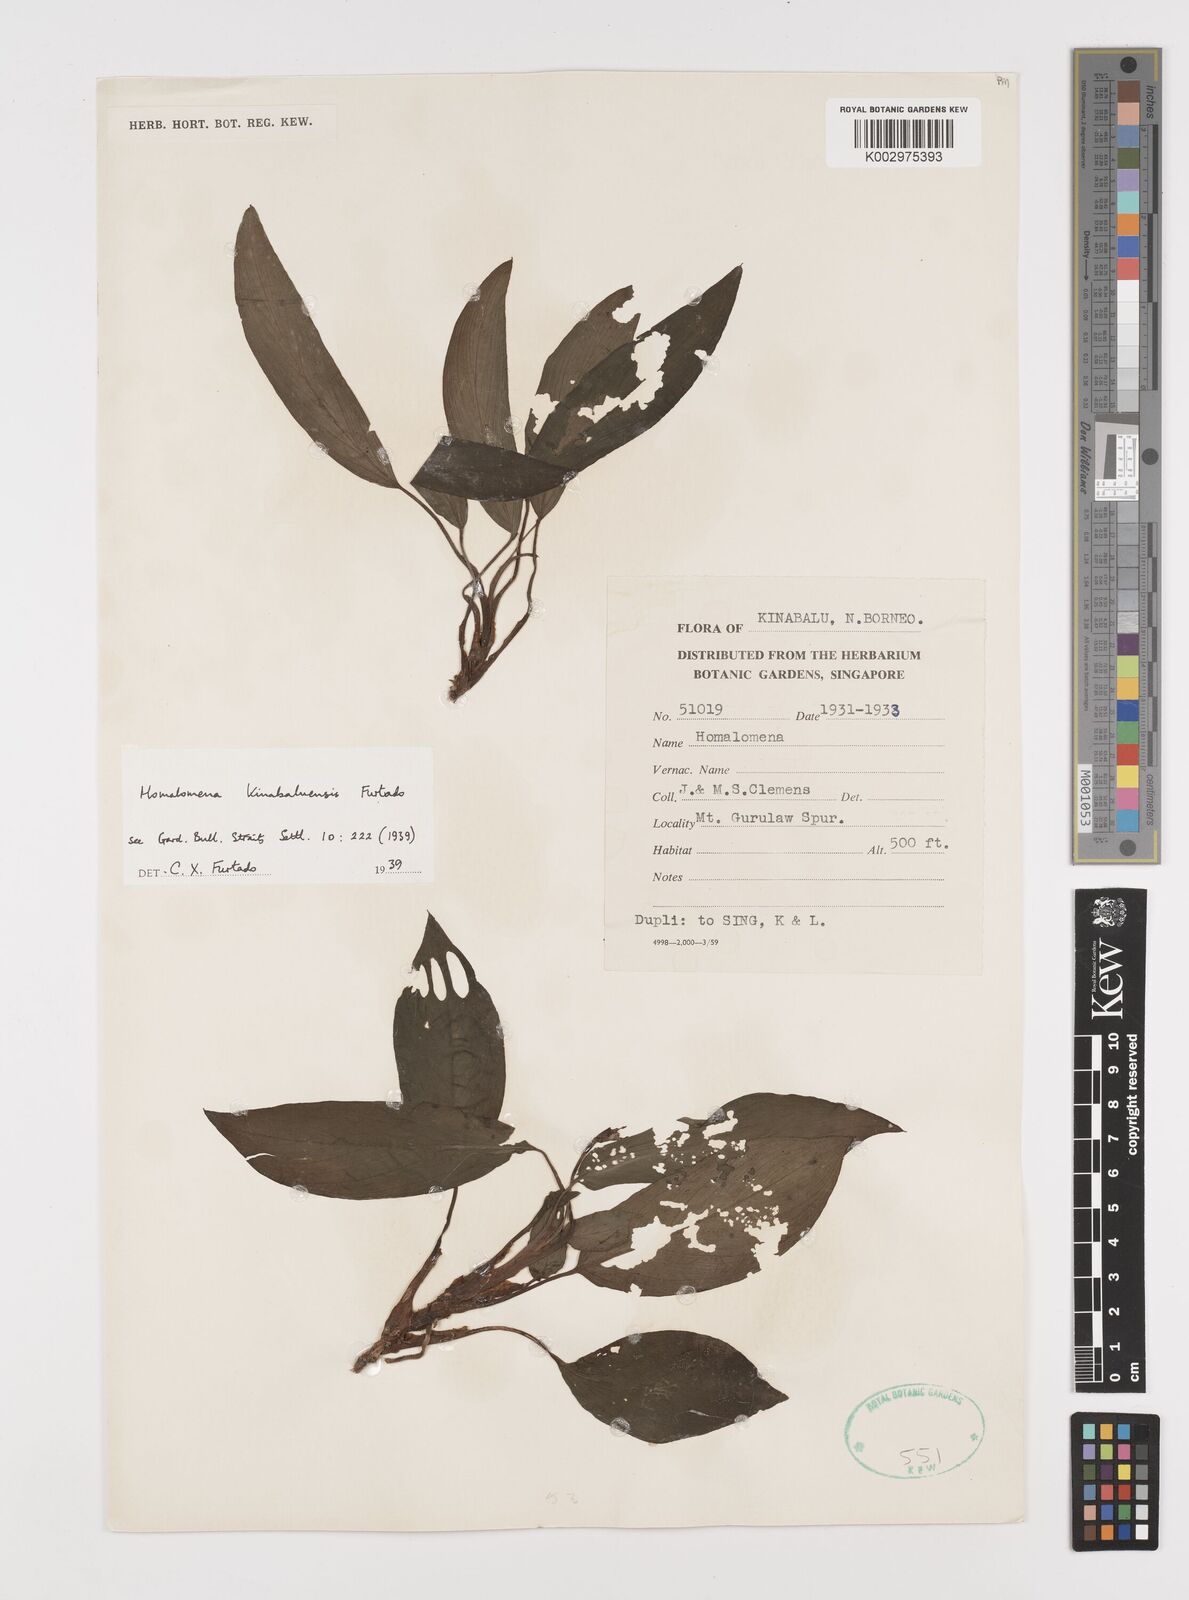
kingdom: Plantae
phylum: Tracheophyta
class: Liliopsida
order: Alismatales
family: Araceae
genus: Homalomena
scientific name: Homalomena gillii
